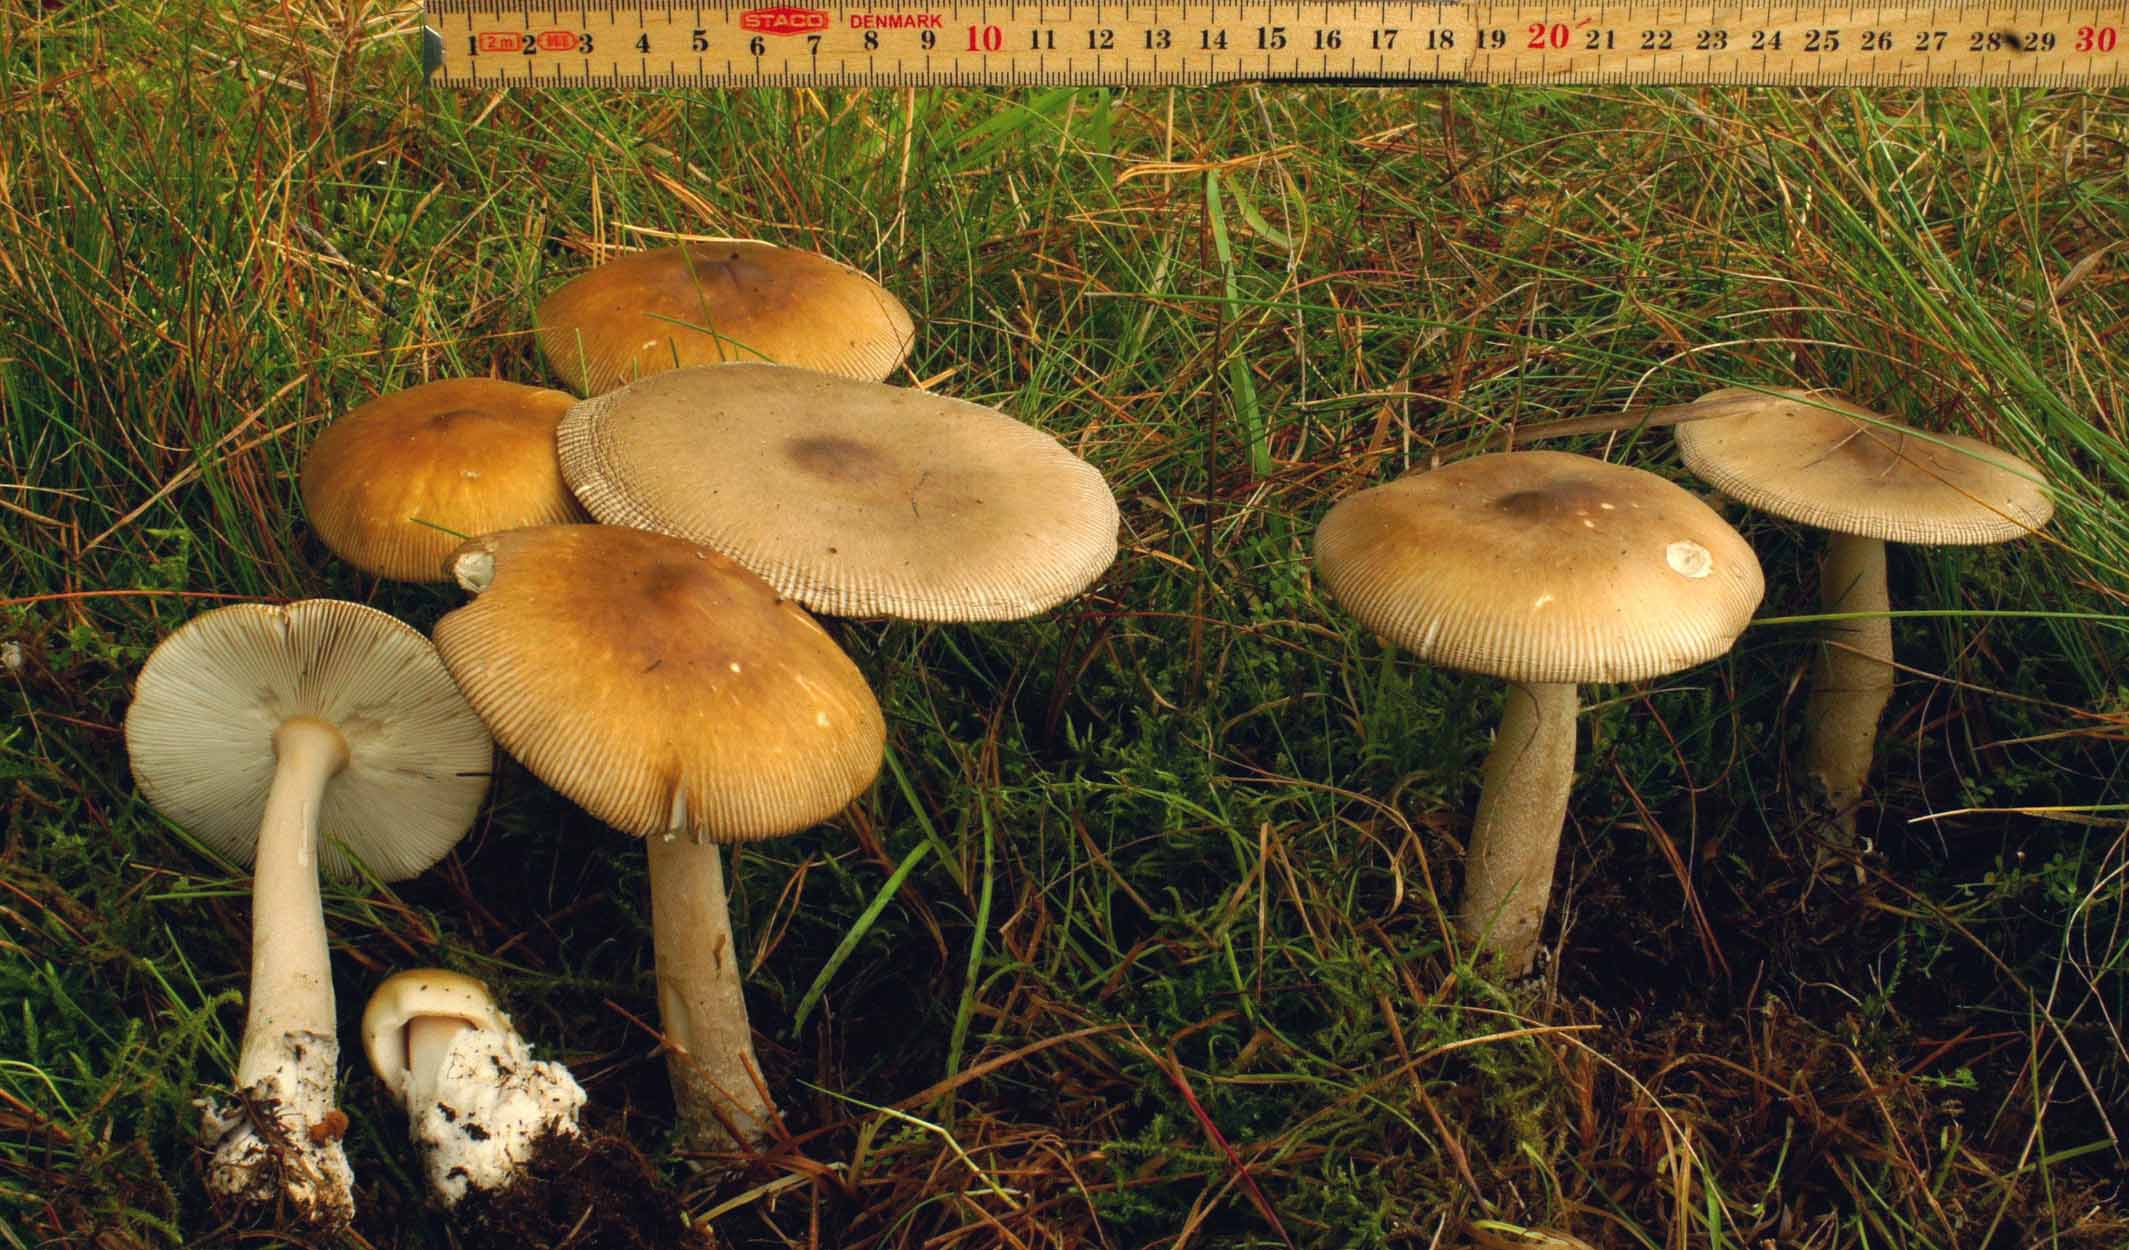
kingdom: Fungi
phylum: Basidiomycota
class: Agaricomycetes
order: Agaricales
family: Amanitaceae
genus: Amanita
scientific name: Amanita vaginata
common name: grå kam-fluesvamp
